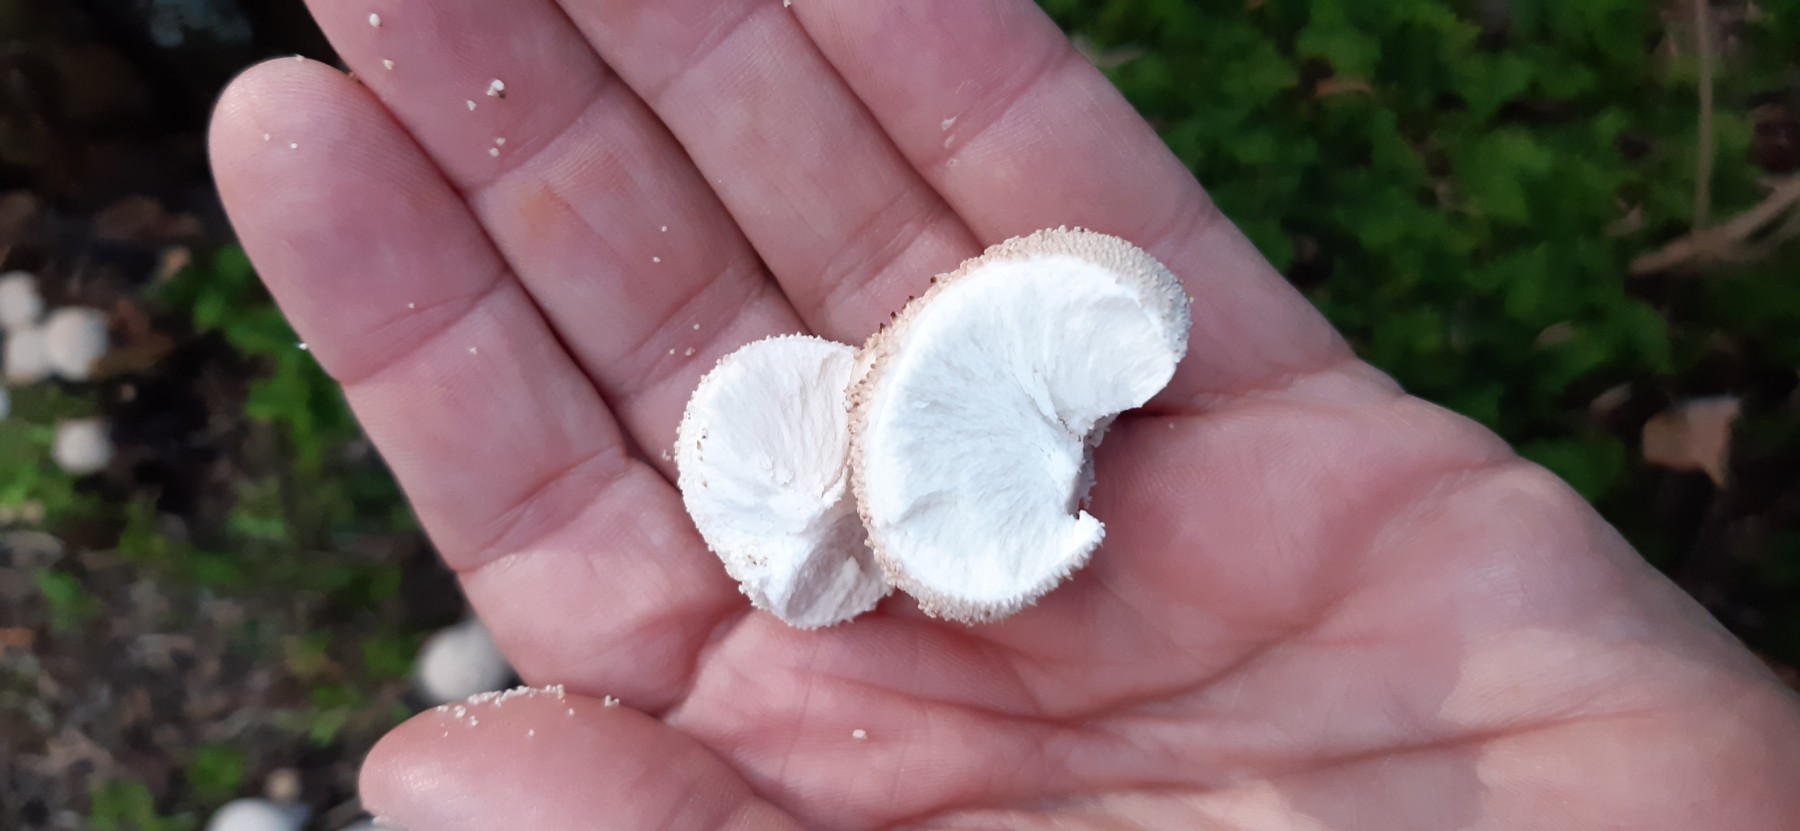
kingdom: Fungi
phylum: Basidiomycota
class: Agaricomycetes
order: Agaricales
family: Lycoperdaceae
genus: Lycoperdon
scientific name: Lycoperdon perlatum
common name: krystal-støvbold
